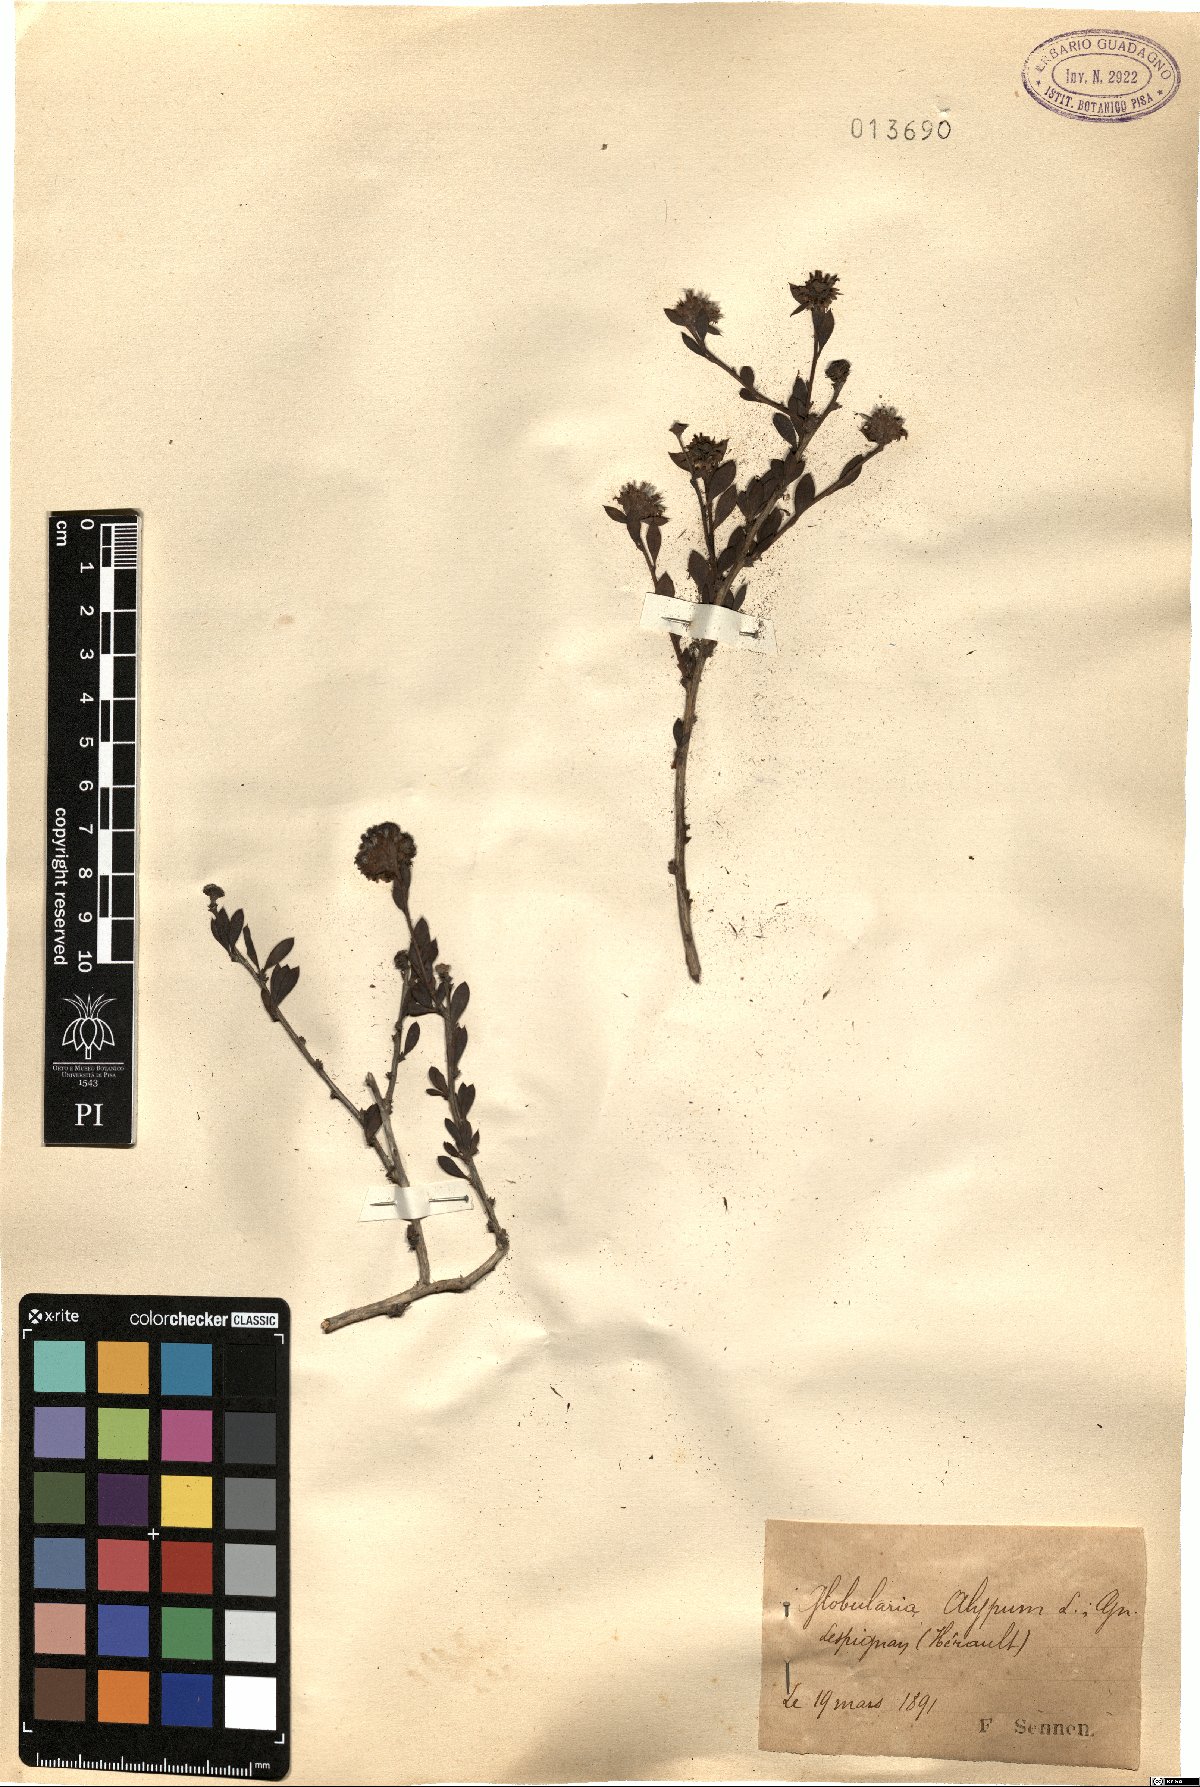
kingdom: Plantae
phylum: Tracheophyta
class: Magnoliopsida
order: Lamiales
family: Plantaginaceae
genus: Globularia
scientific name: Globularia alypum
